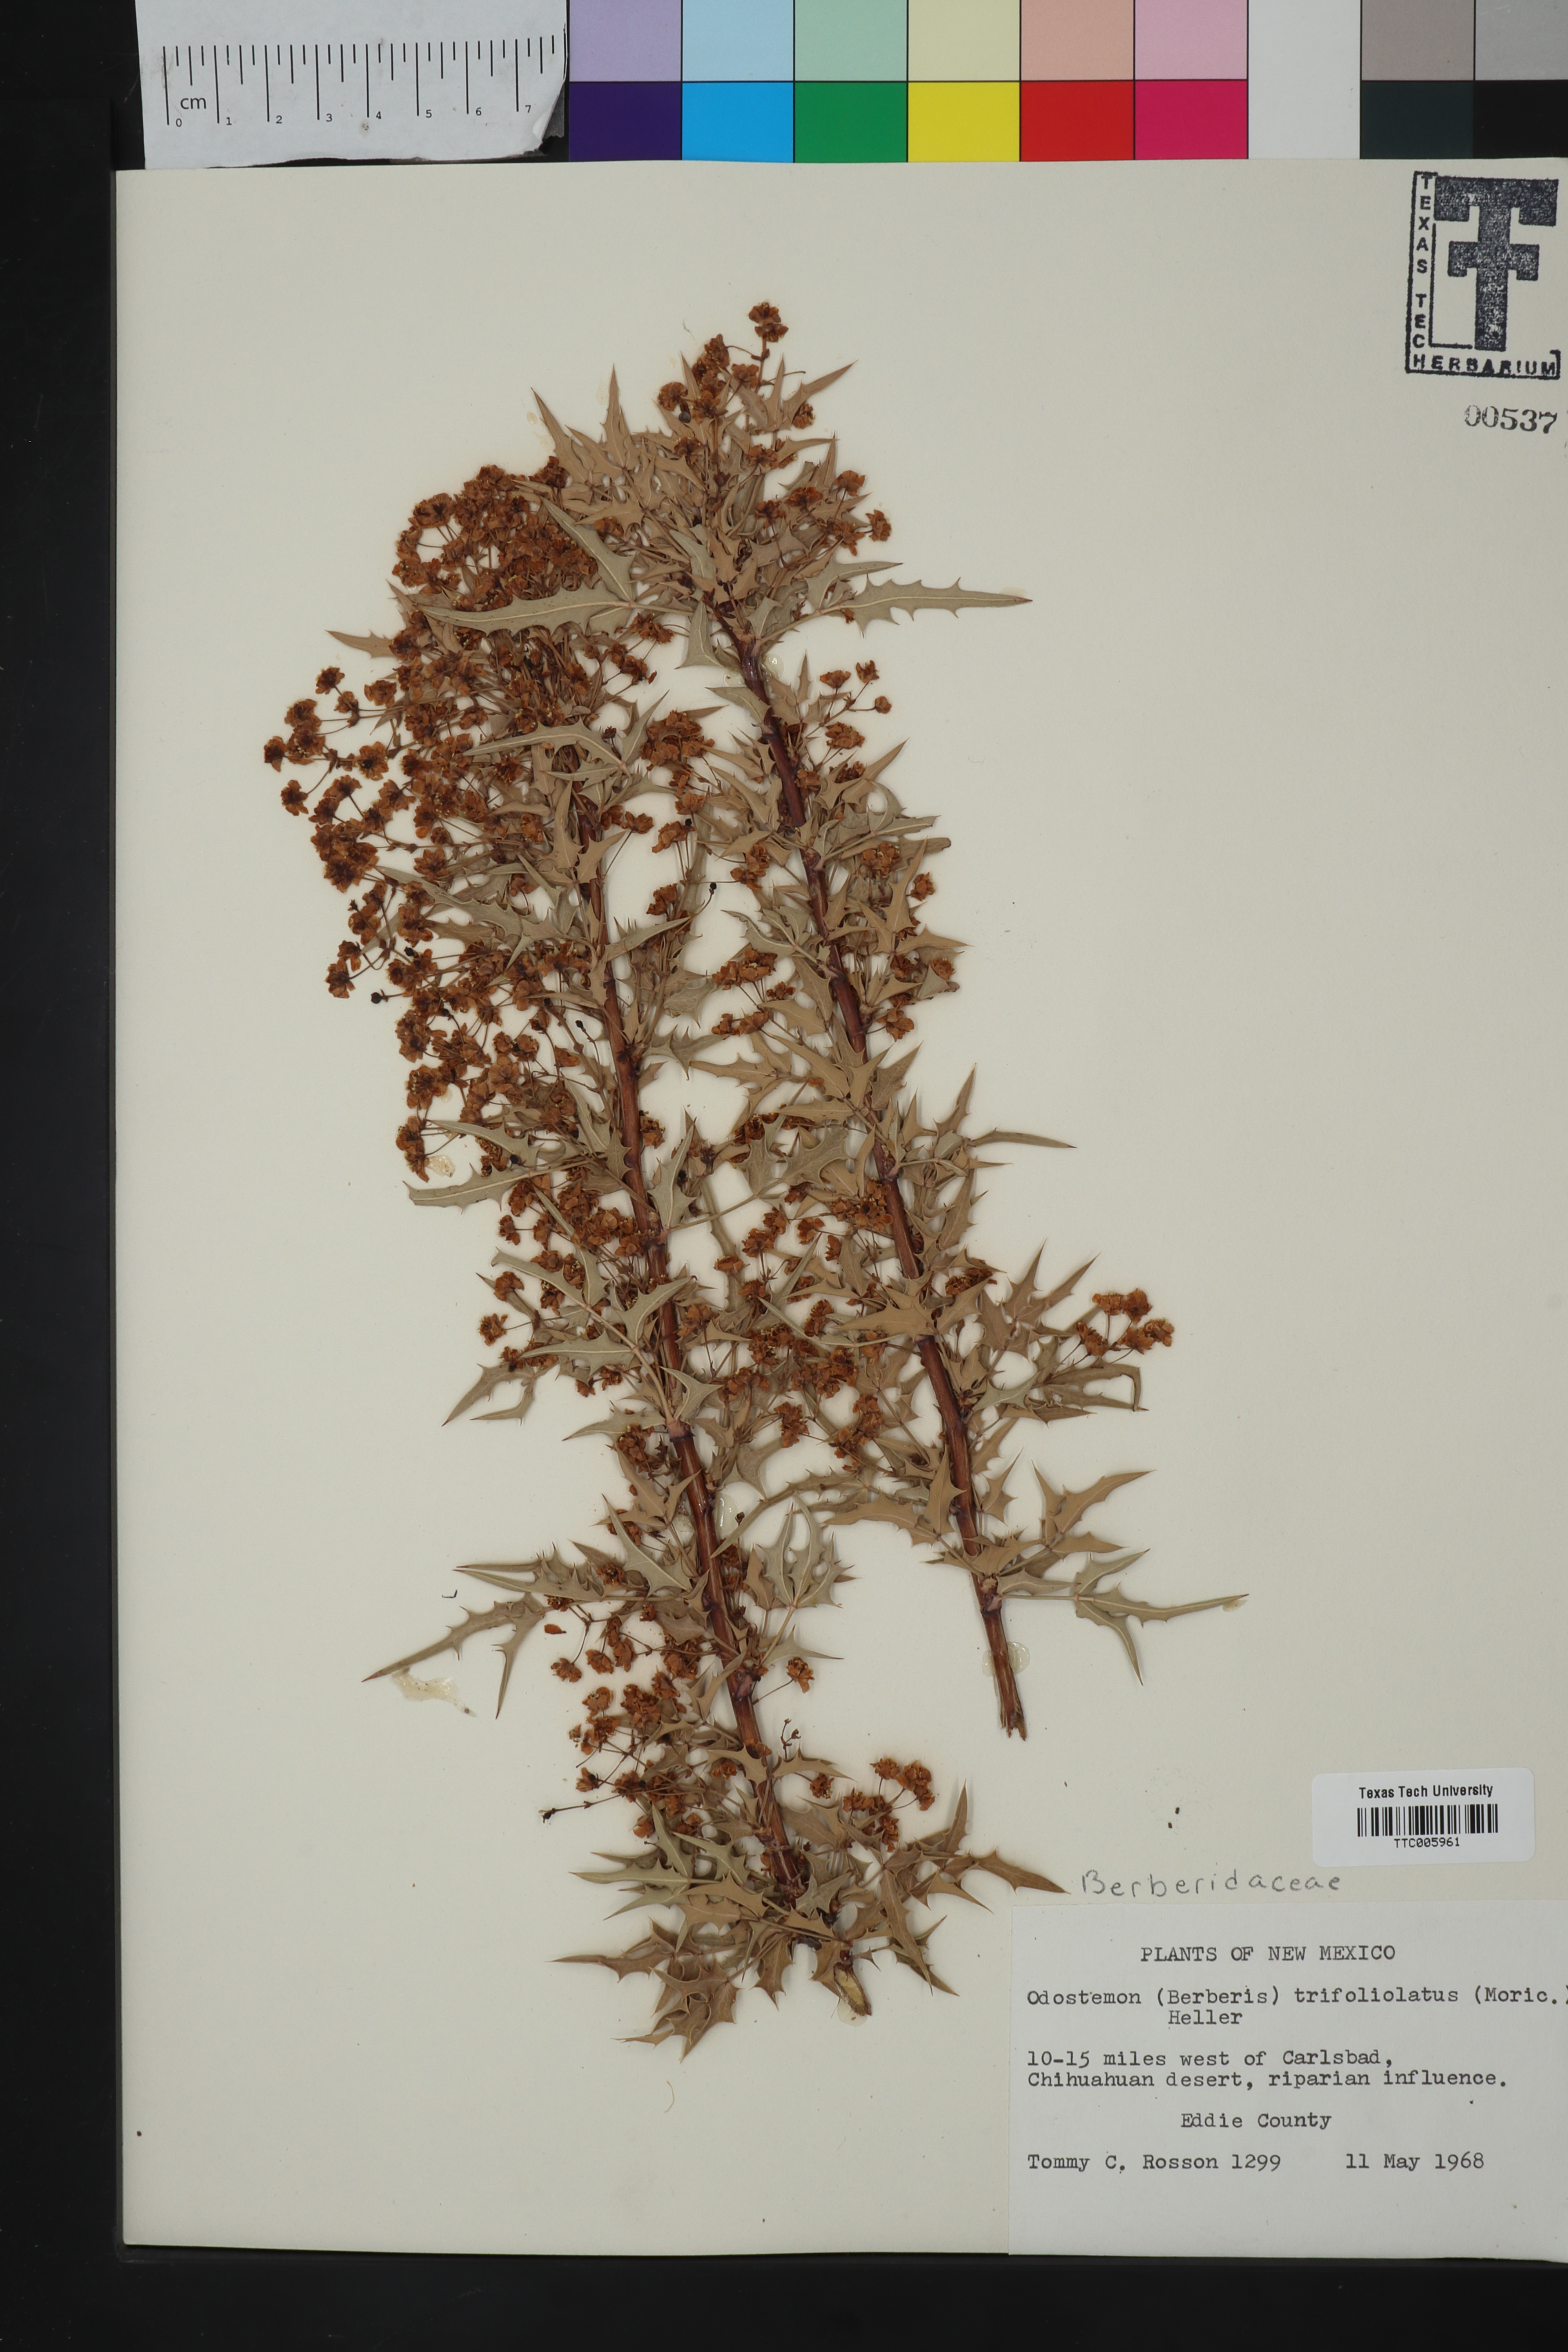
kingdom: Plantae
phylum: Tracheophyta
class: Magnoliopsida
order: Ranunculales
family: Berberidaceae
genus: Alloberberis
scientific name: Alloberberis trifoliolata
